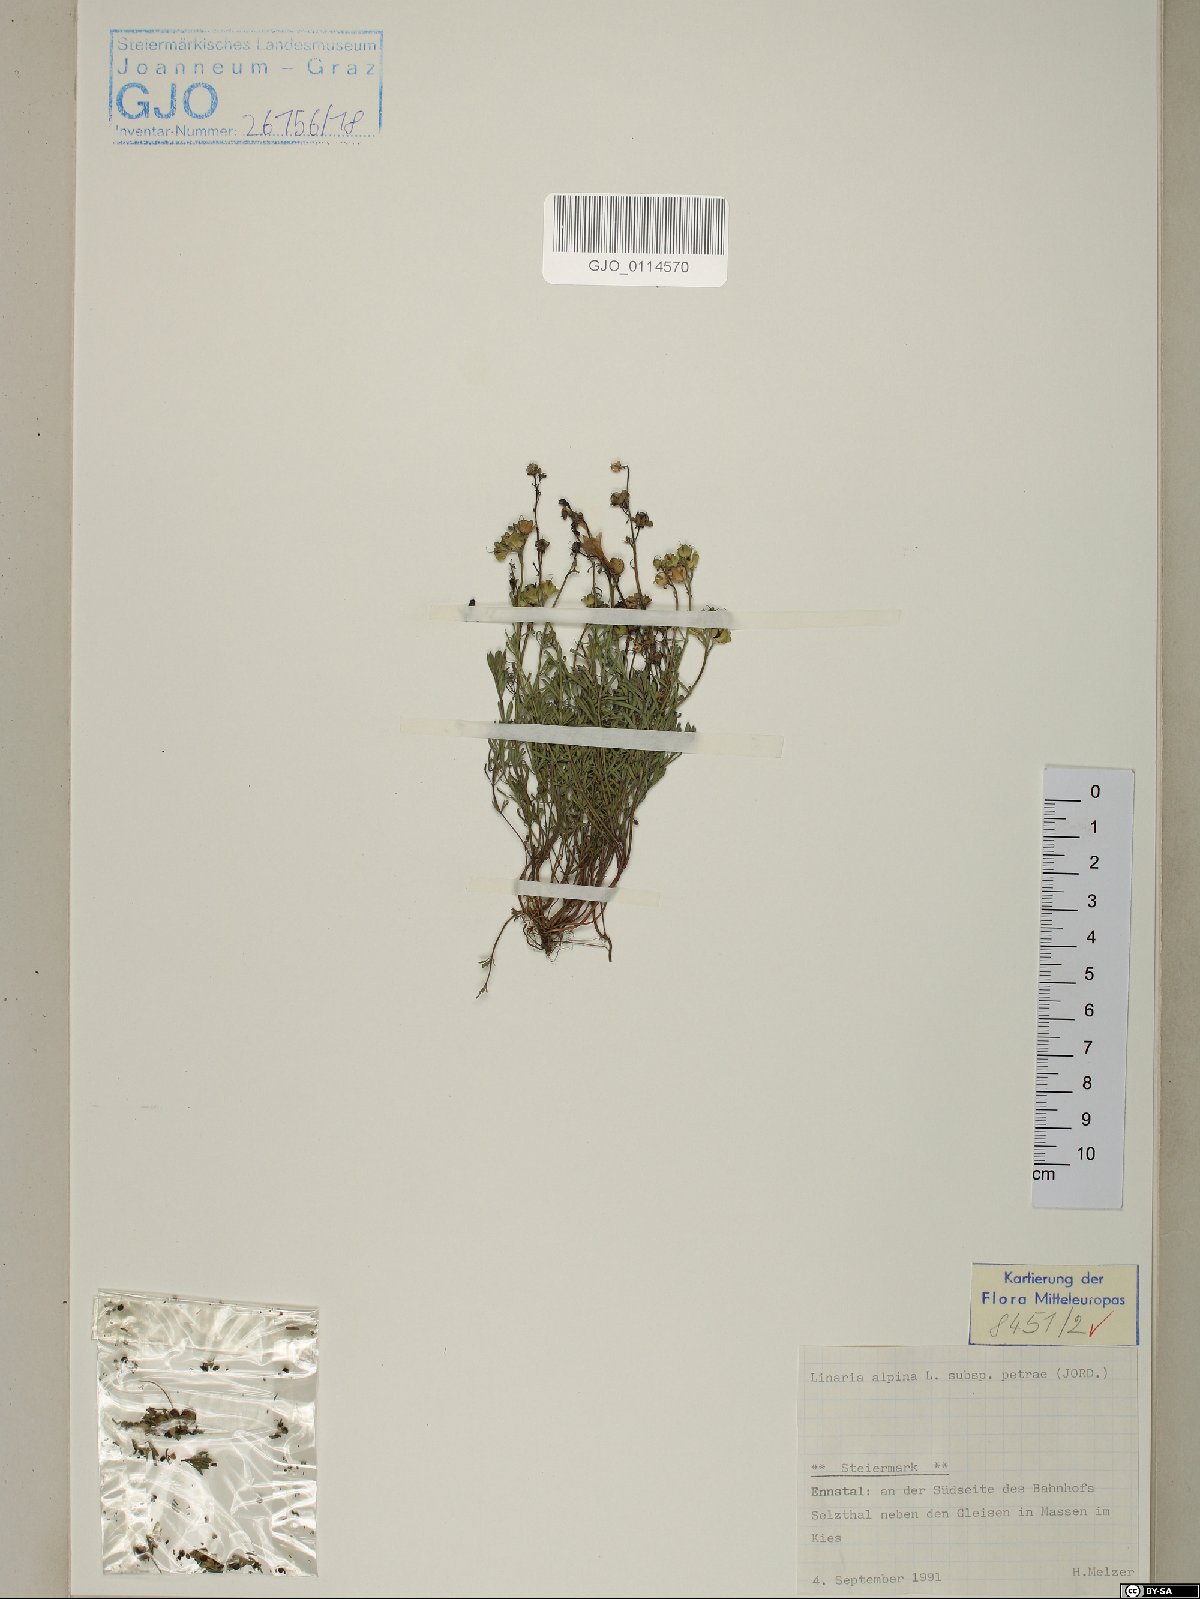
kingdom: Plantae
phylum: Tracheophyta
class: Magnoliopsida
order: Lamiales
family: Plantaginaceae
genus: Linaria
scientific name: Linaria alpina
